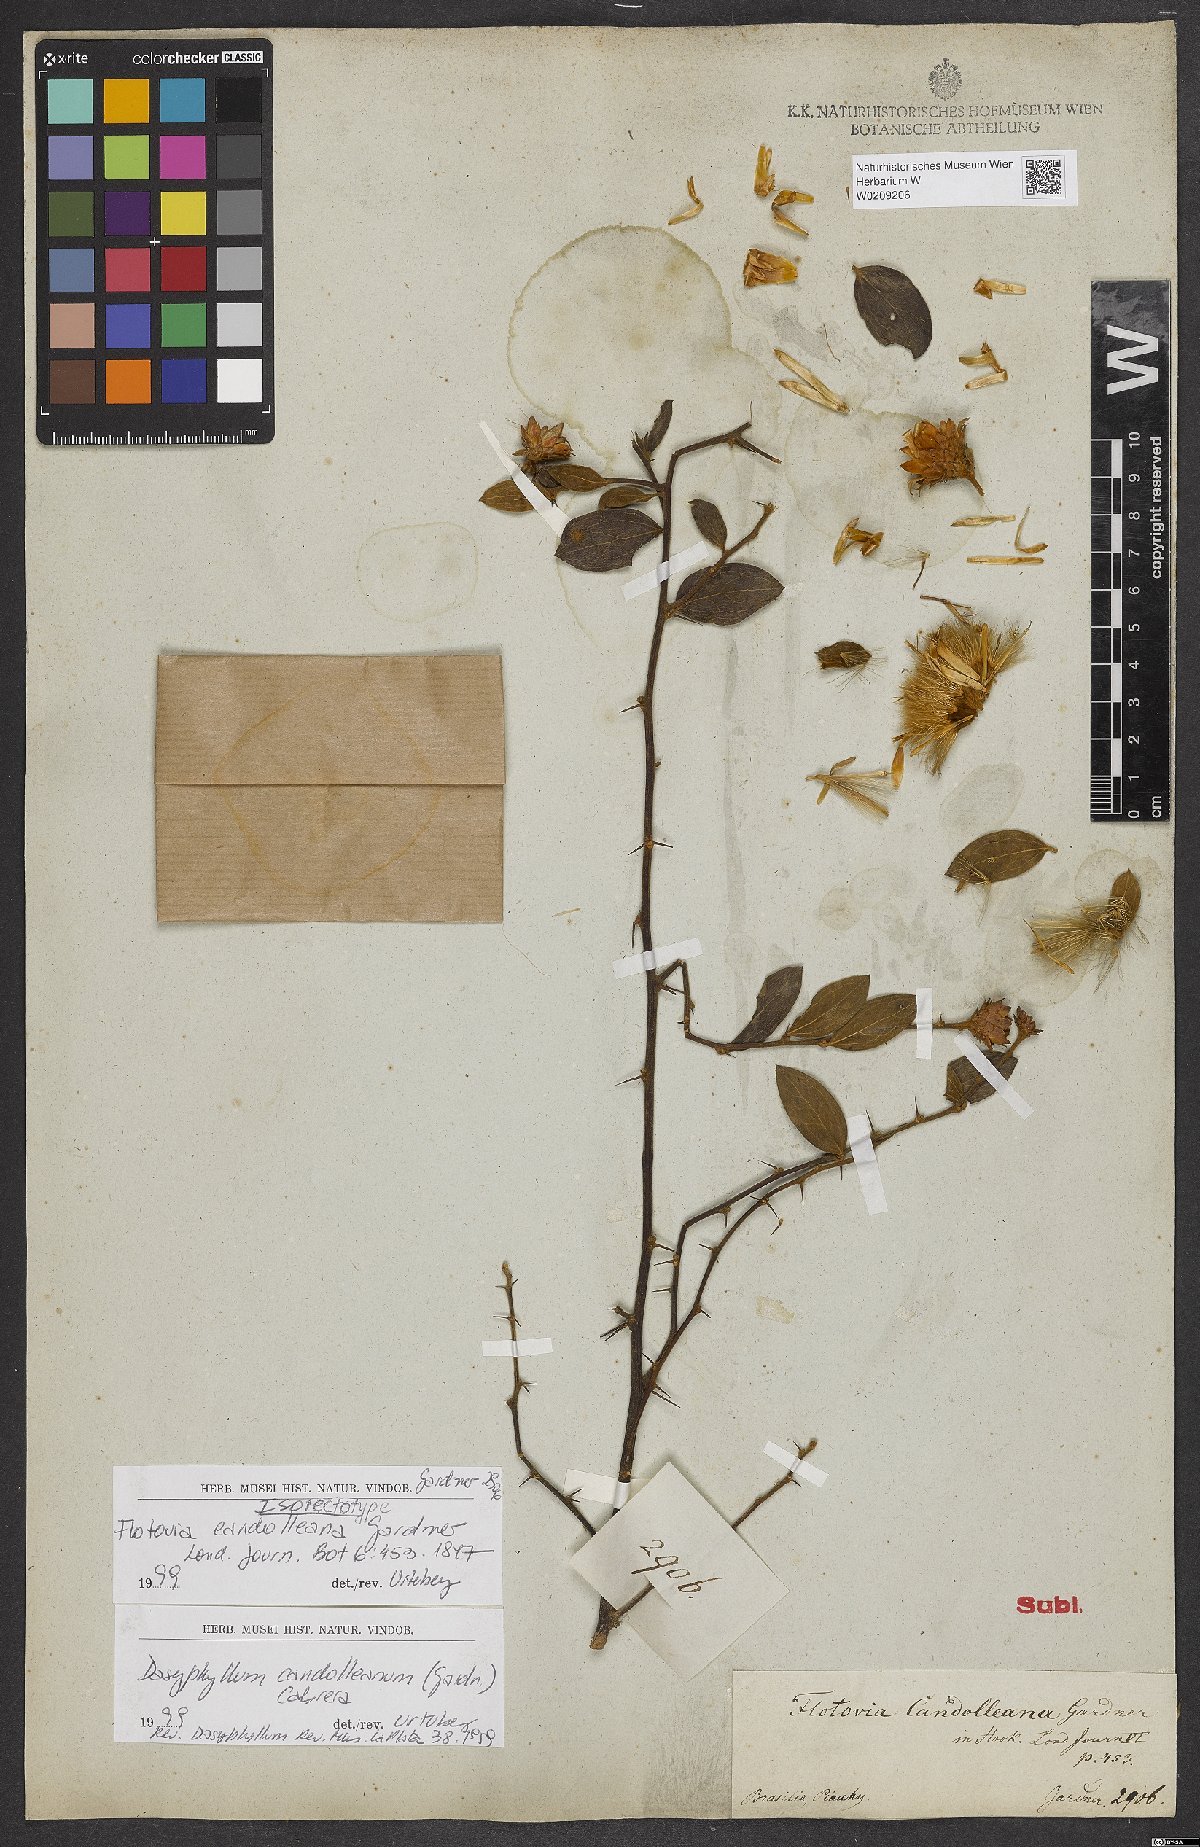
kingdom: Plantae
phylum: Tracheophyta
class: Magnoliopsida
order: Asterales
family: Asteraceae
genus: Dasyphyllum
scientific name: Dasyphyllum candolleanum
